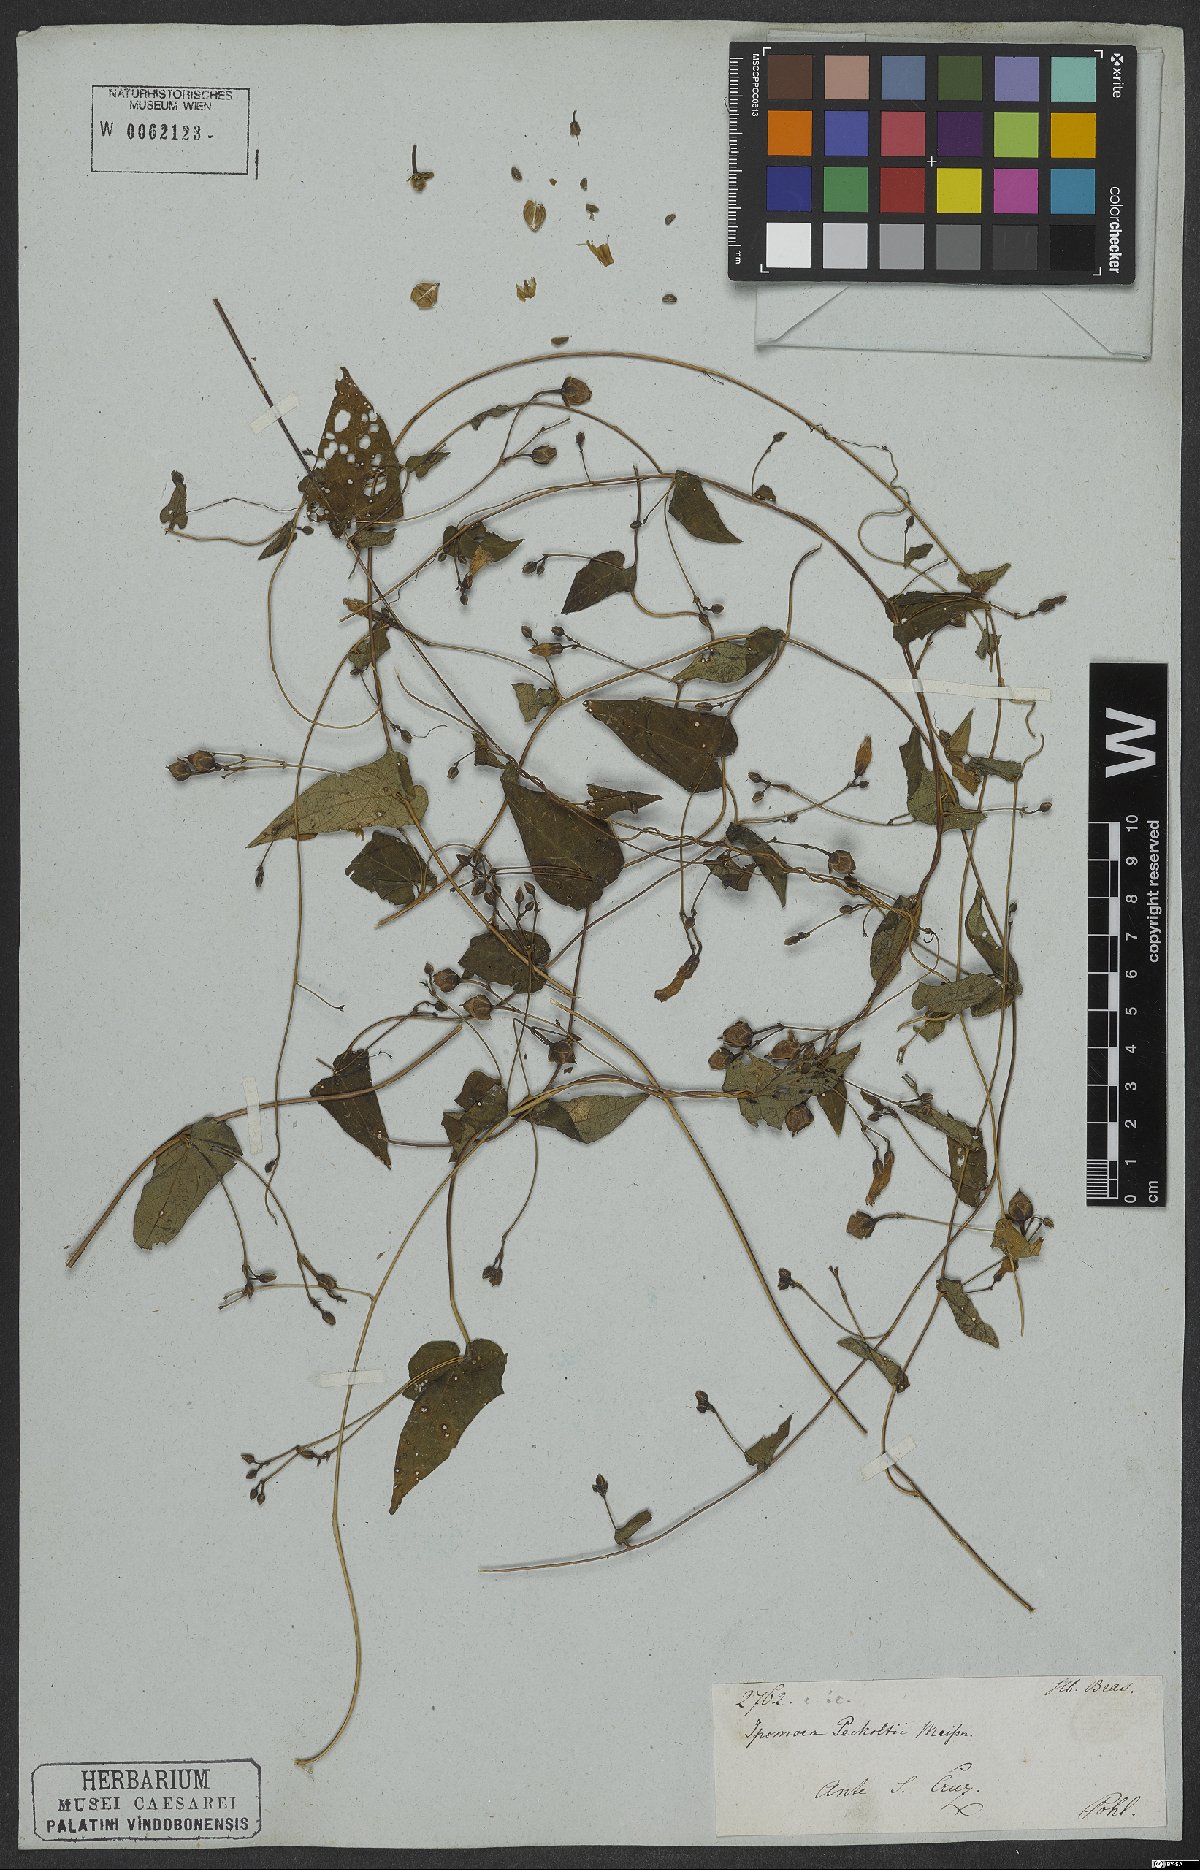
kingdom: Plantae
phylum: Tracheophyta
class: Magnoliopsida
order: Solanales
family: Convolvulaceae
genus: Ipomoea
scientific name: Ipomoea aristolochiifolia
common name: Aristolochia-leaved morning-glory
